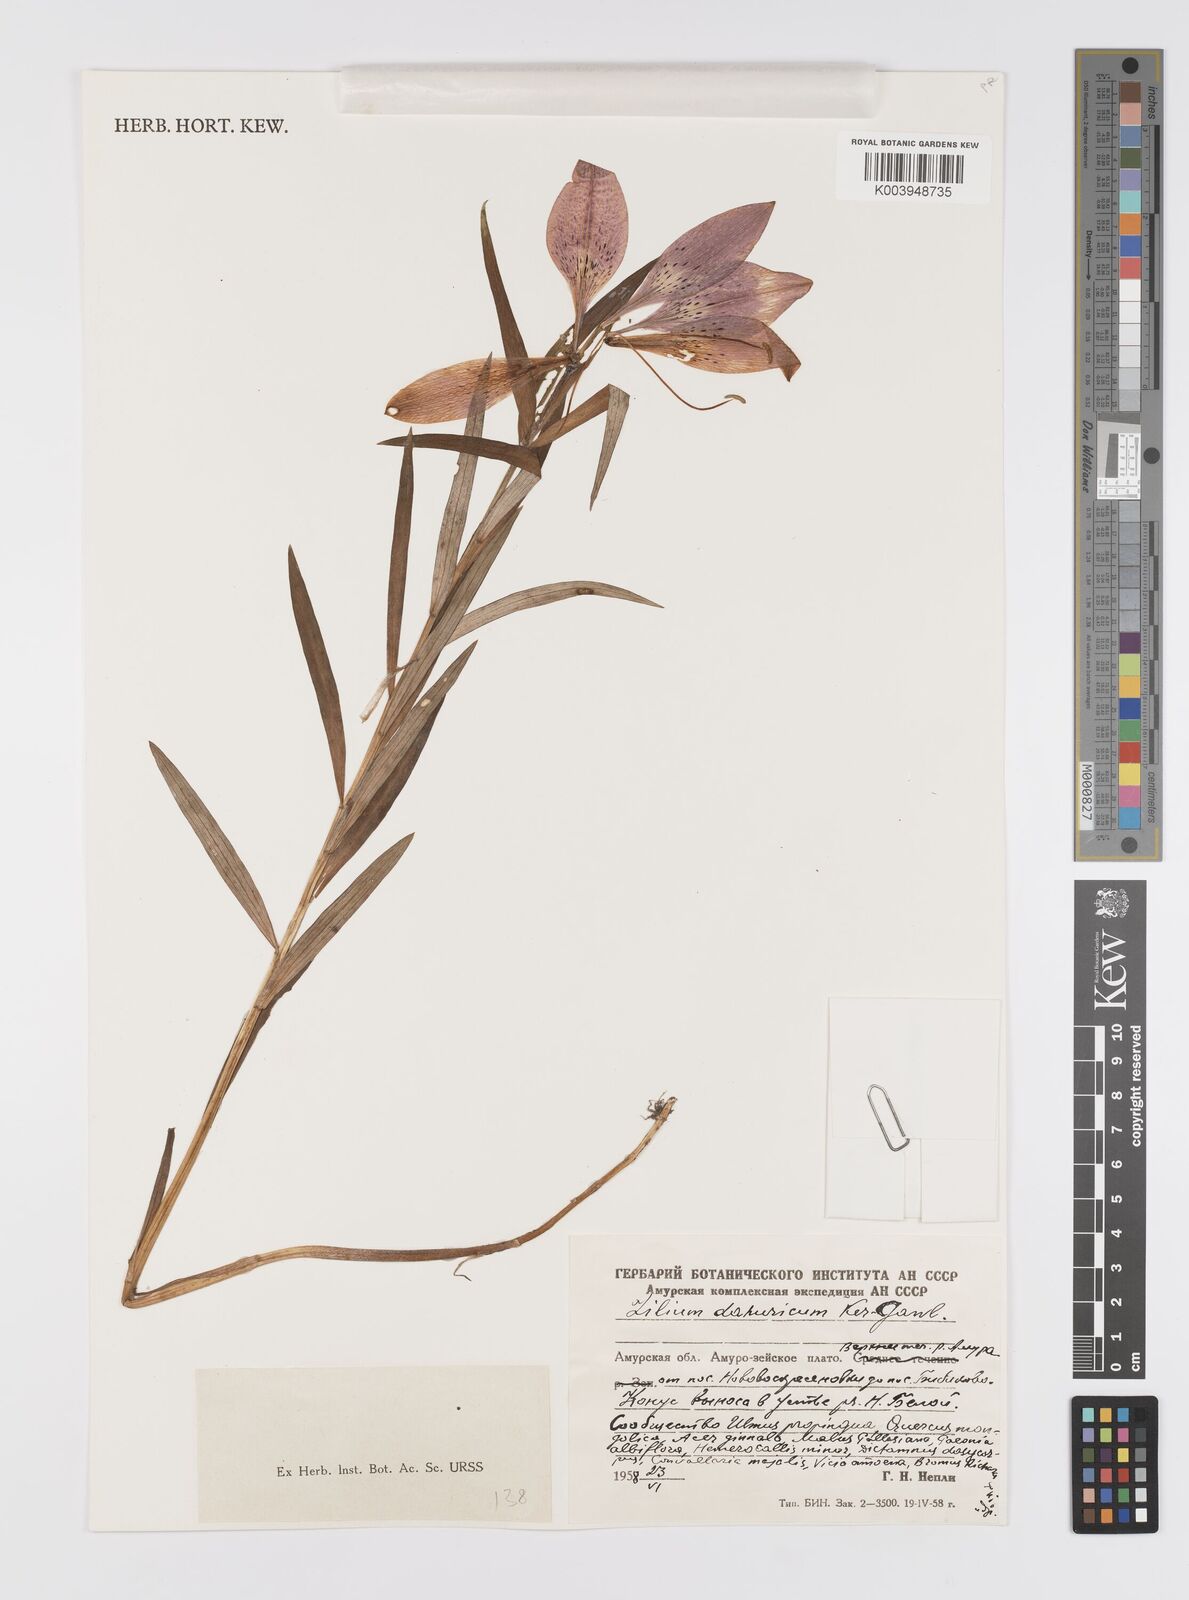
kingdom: Plantae
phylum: Tracheophyta
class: Liliopsida
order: Liliales
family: Liliaceae
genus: Lilium
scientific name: Lilium pensylvanicum
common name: Candlestick lily
